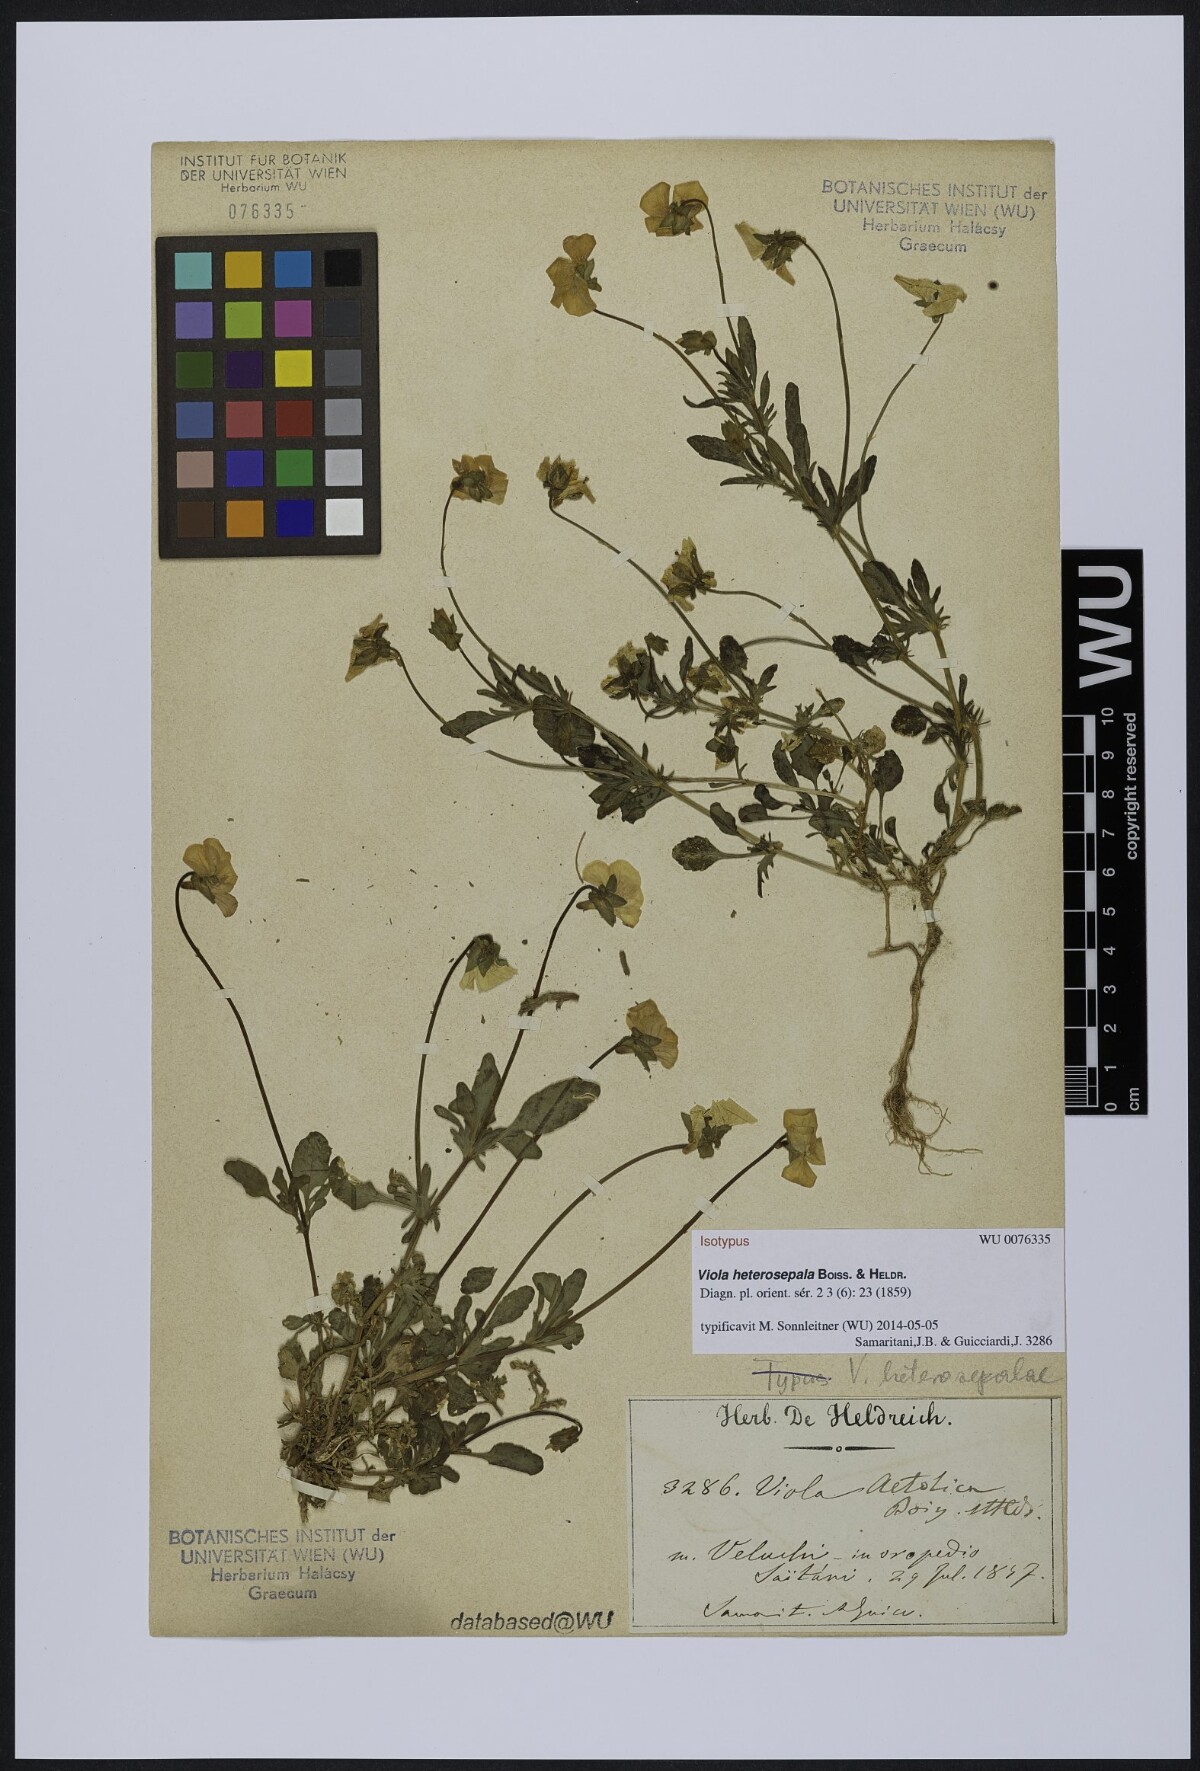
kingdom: Plantae
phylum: Tracheophyta
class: Magnoliopsida
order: Malpighiales
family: Violaceae
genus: Viola
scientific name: Viola aetolica
